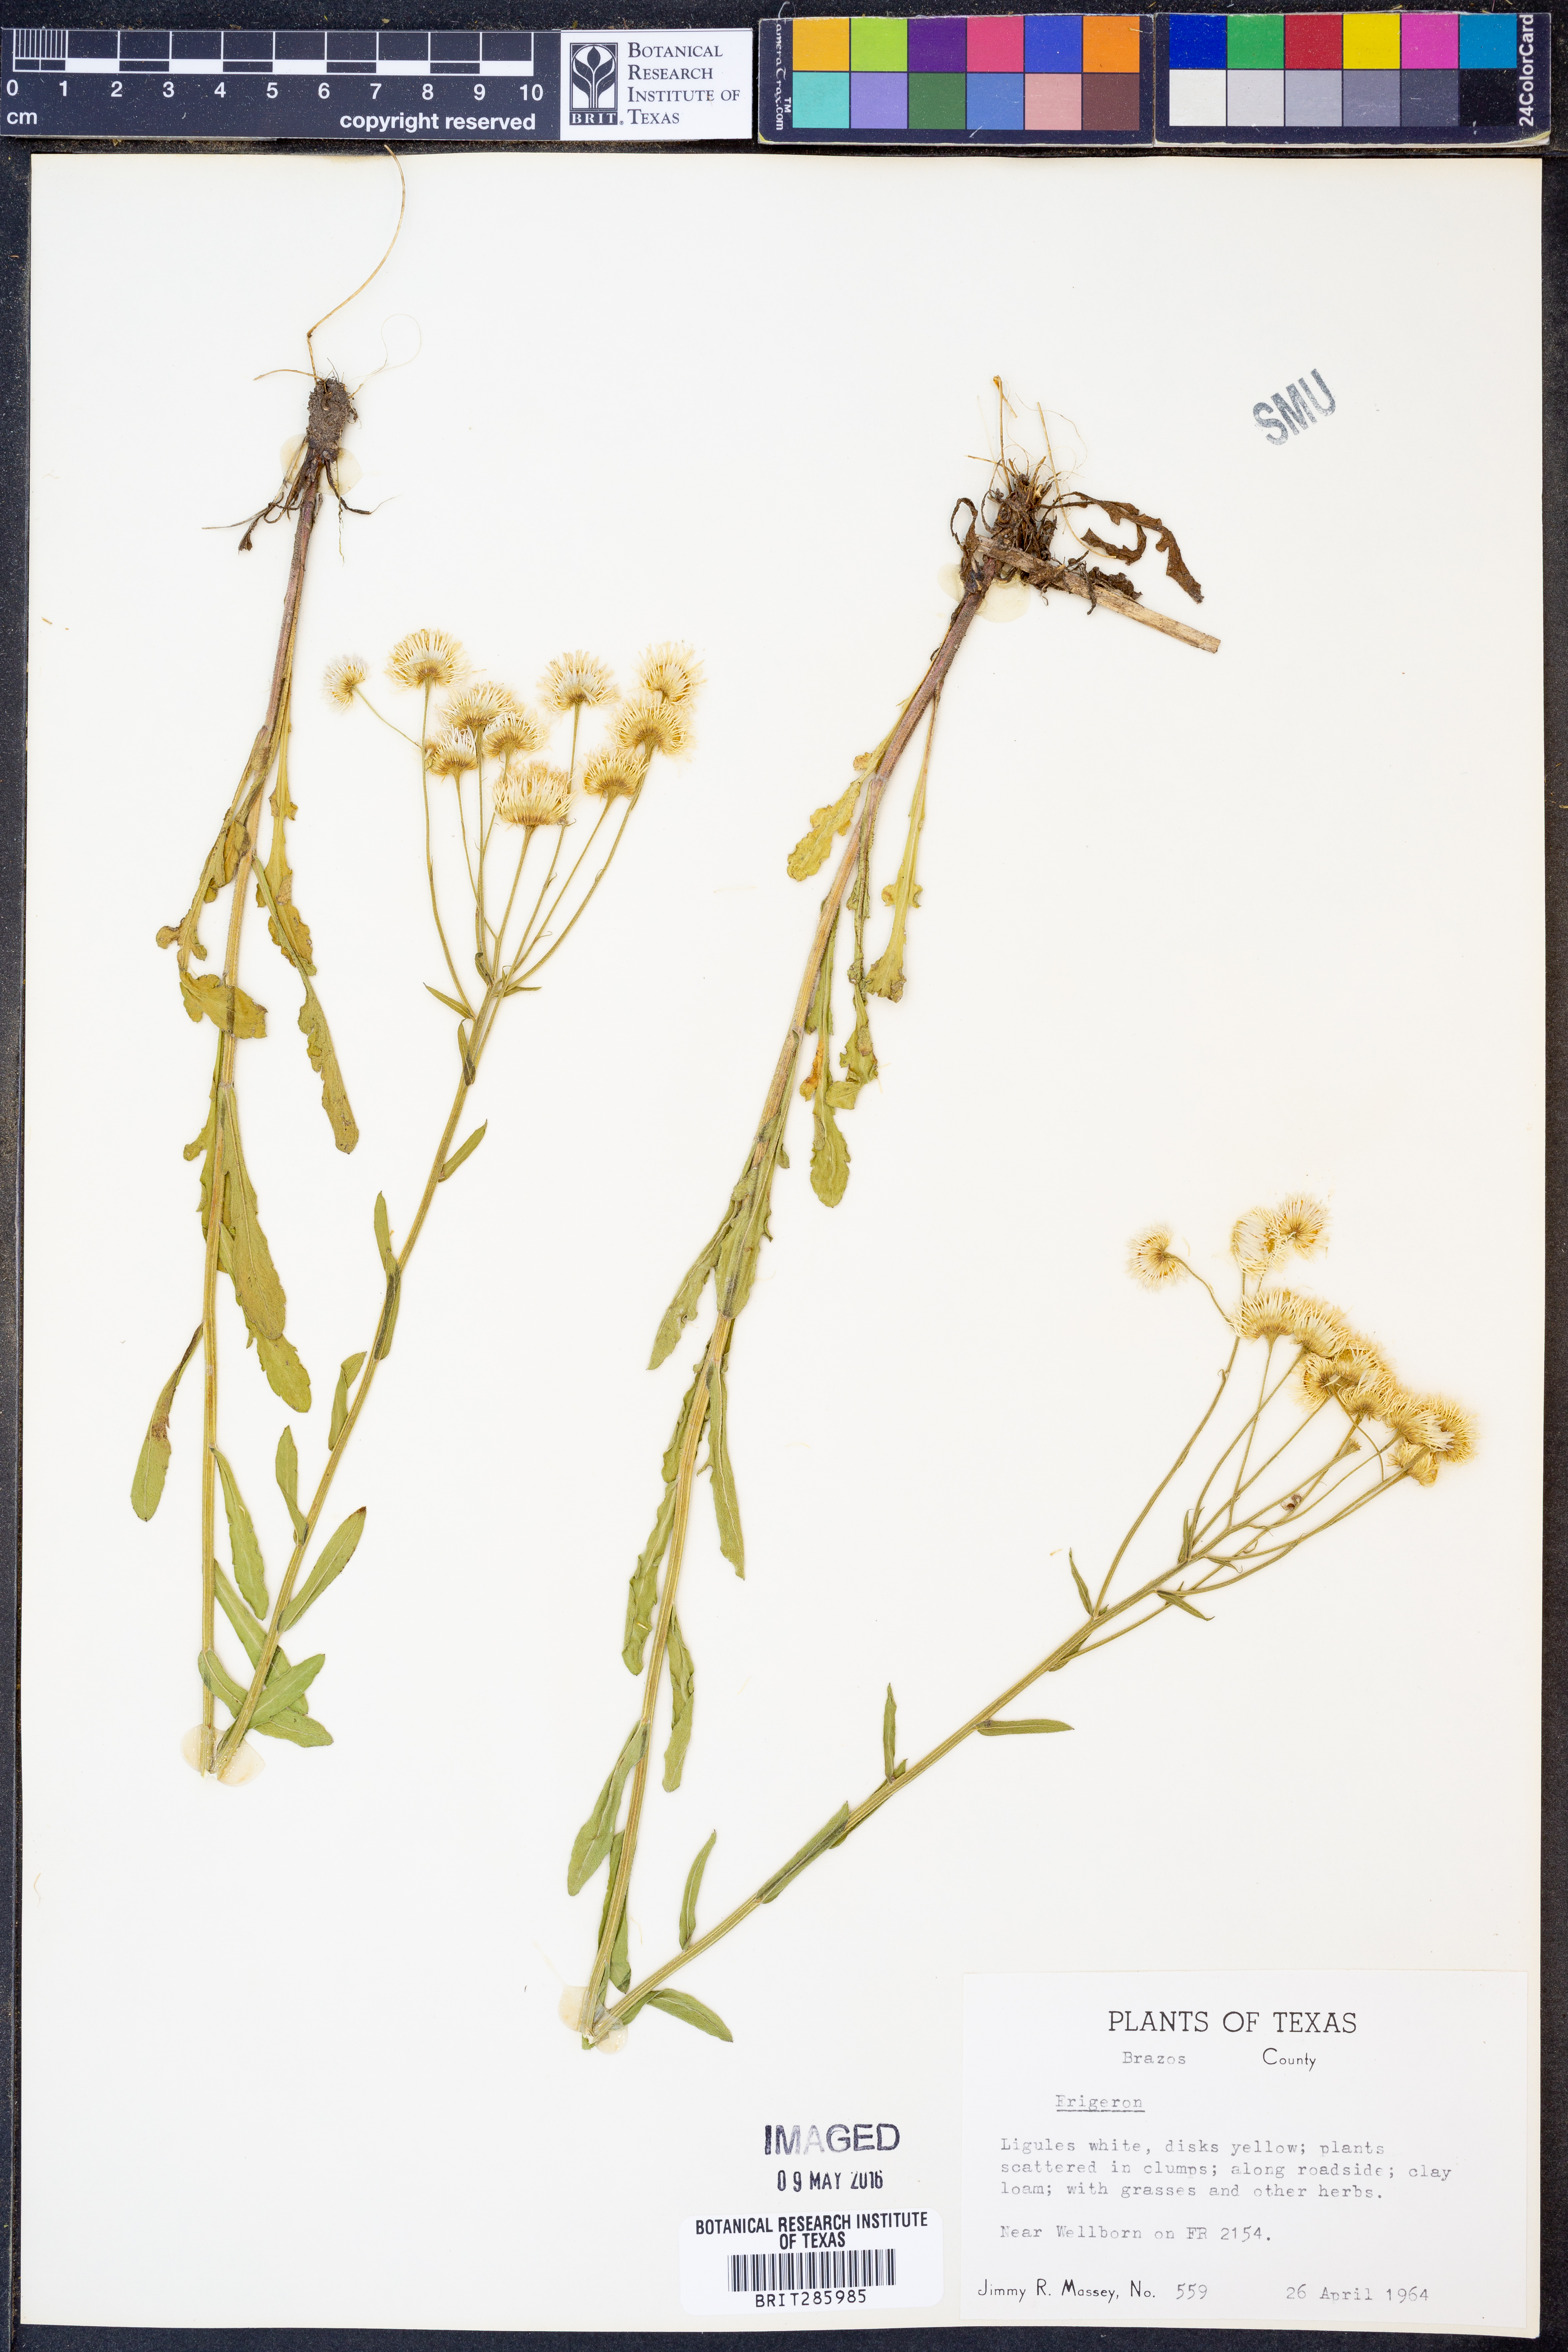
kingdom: Plantae
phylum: Tracheophyta
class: Magnoliopsida
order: Asterales
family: Asteraceae
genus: Erigeron
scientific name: Erigeron
